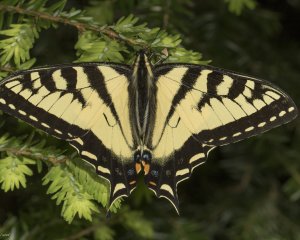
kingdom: Animalia
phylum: Arthropoda
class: Insecta
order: Lepidoptera
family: Papilionidae
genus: Pterourus
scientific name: Pterourus canadensis
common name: Canadian Tiger Swallowtail
